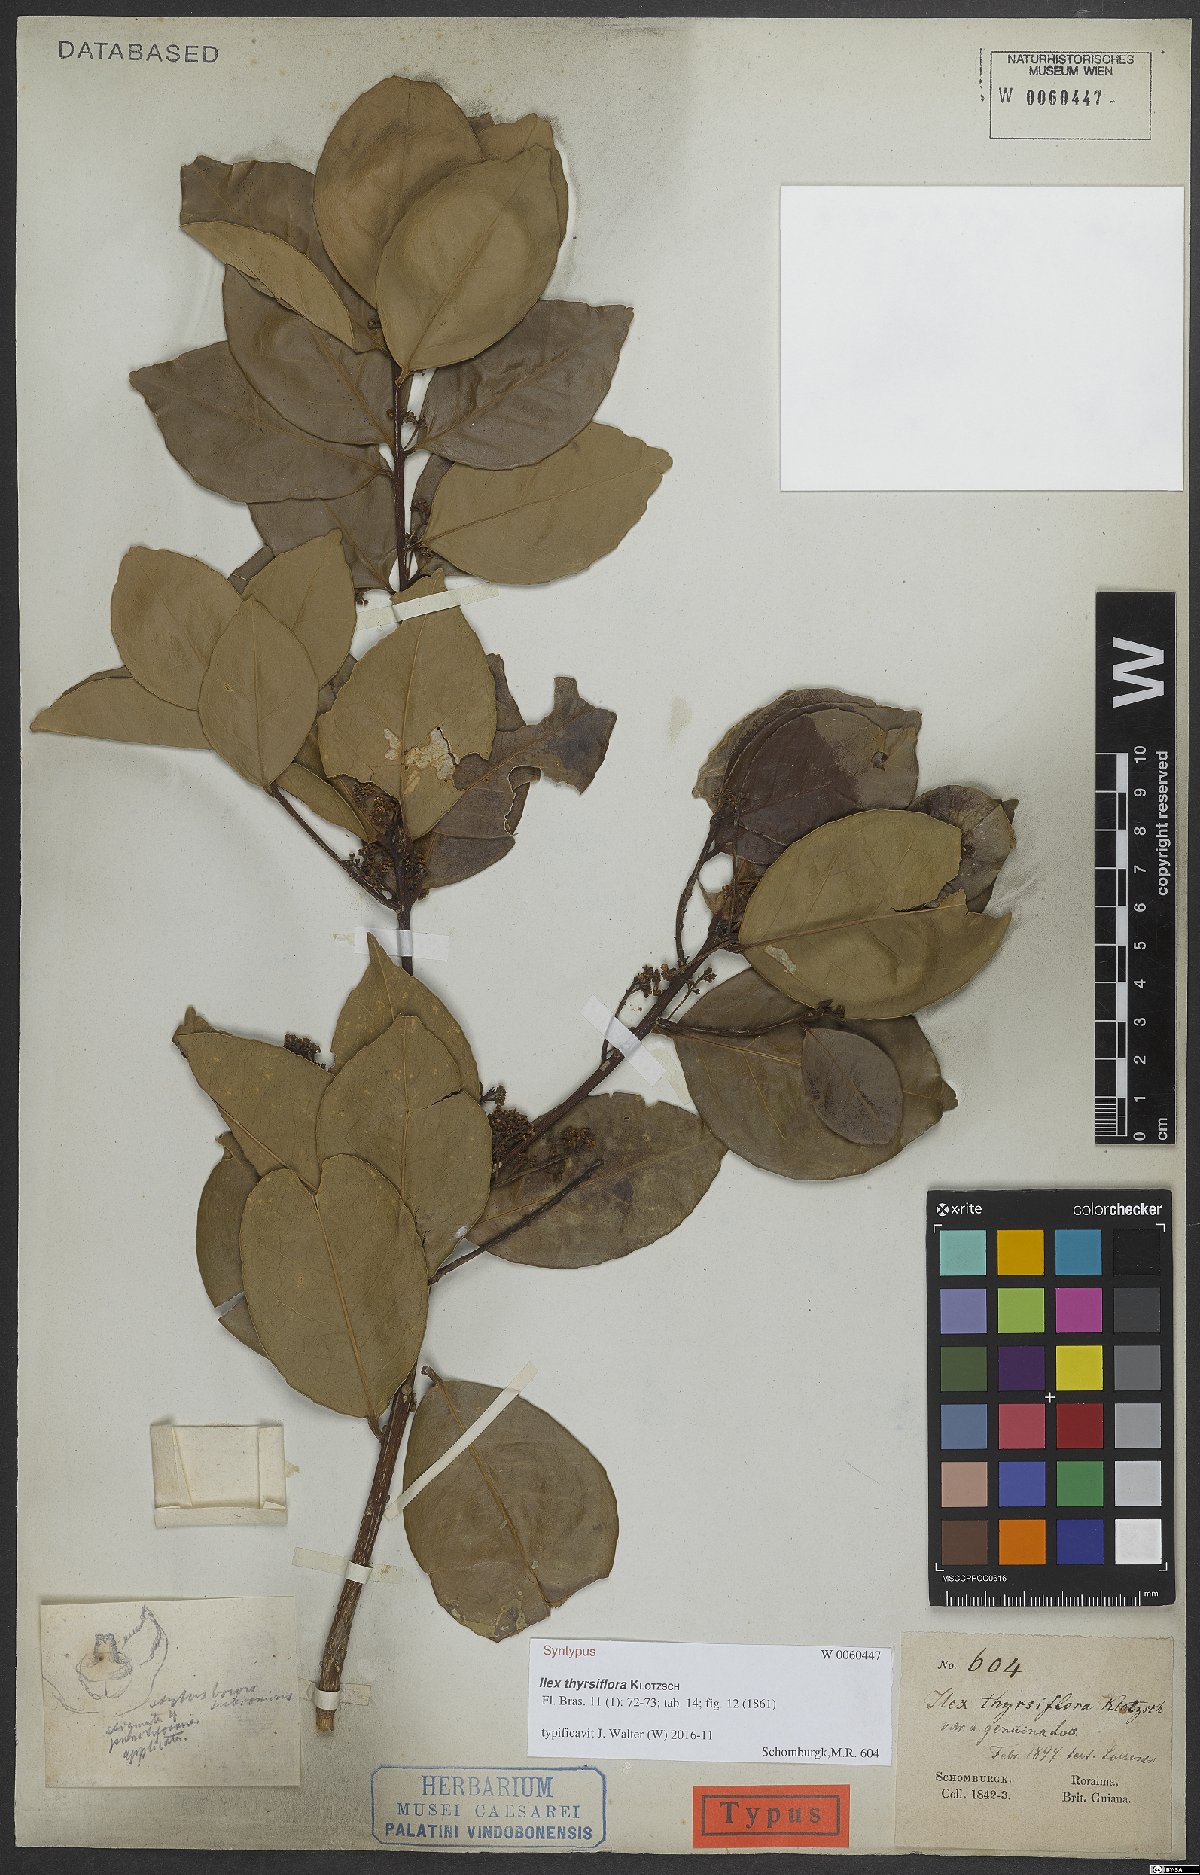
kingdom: Plantae
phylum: Tracheophyta
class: Magnoliopsida
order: Aquifoliales
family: Aquifoliaceae
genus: Ilex
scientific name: Ilex thyrsiflora
